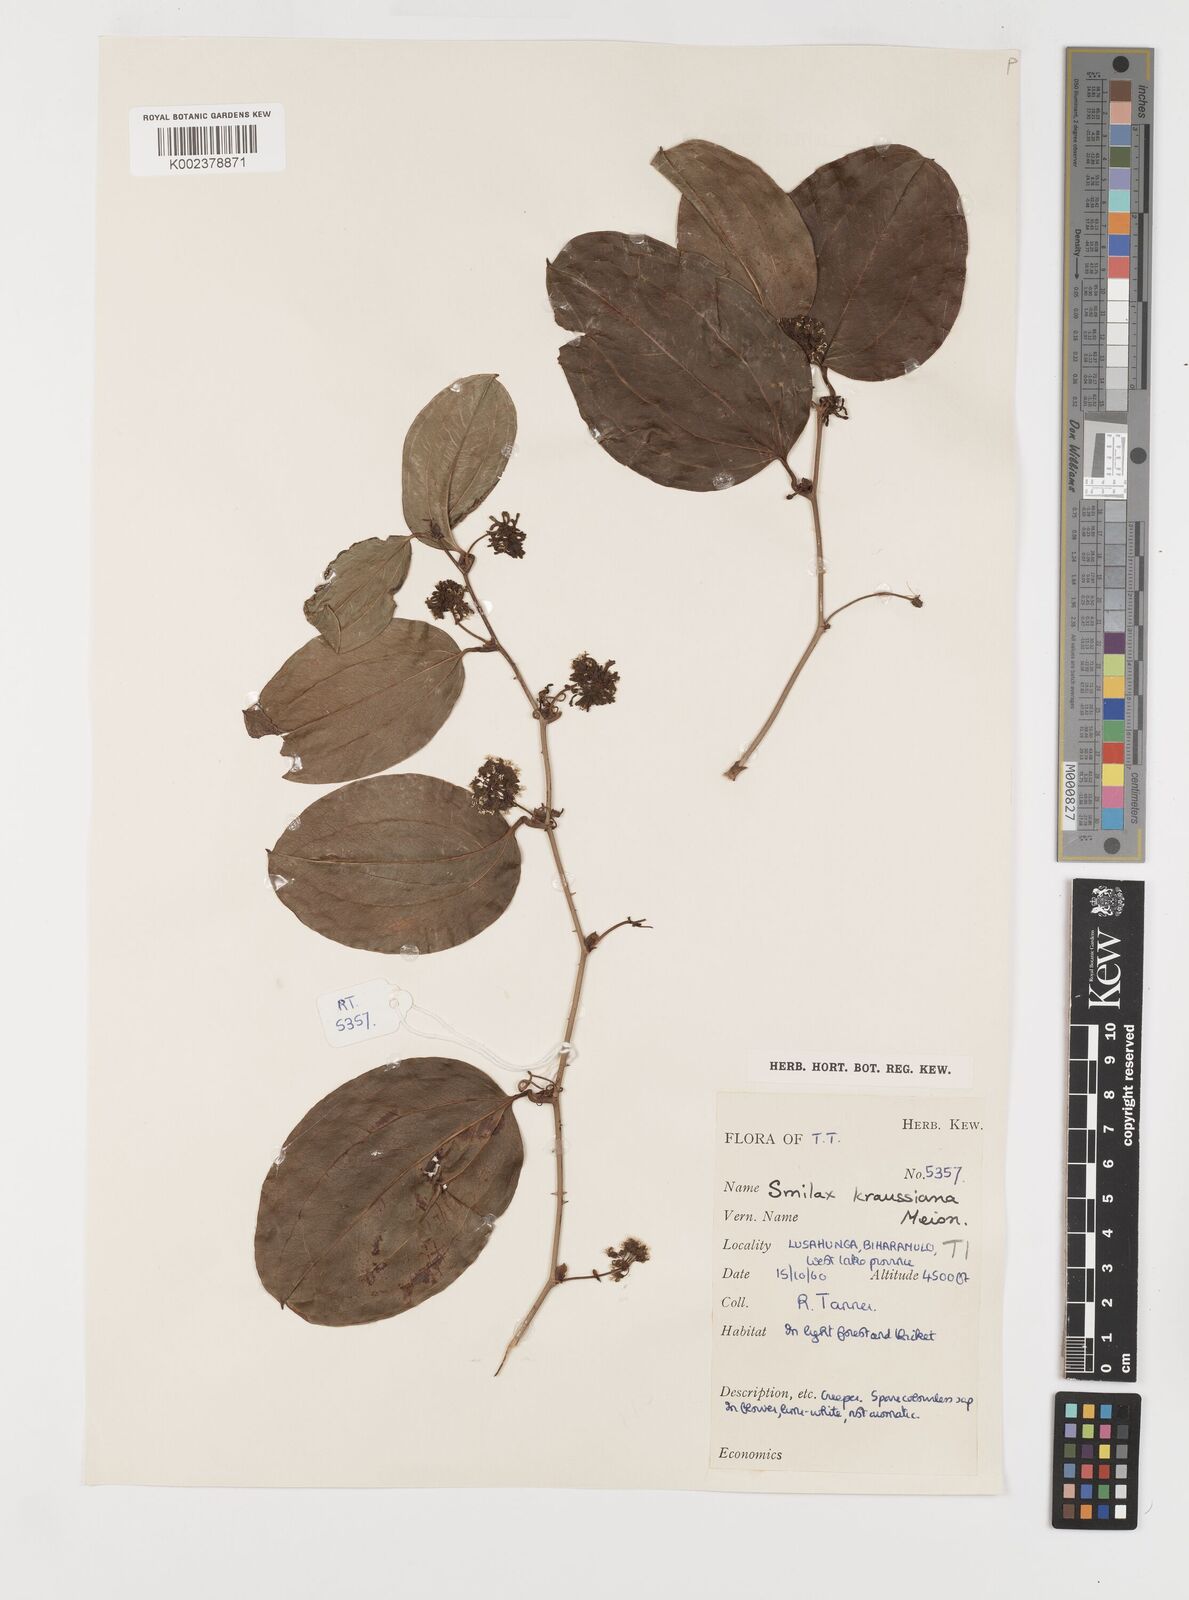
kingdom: Plantae
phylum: Tracheophyta
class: Liliopsida
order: Liliales
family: Smilacaceae
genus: Smilax
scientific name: Smilax anceps
